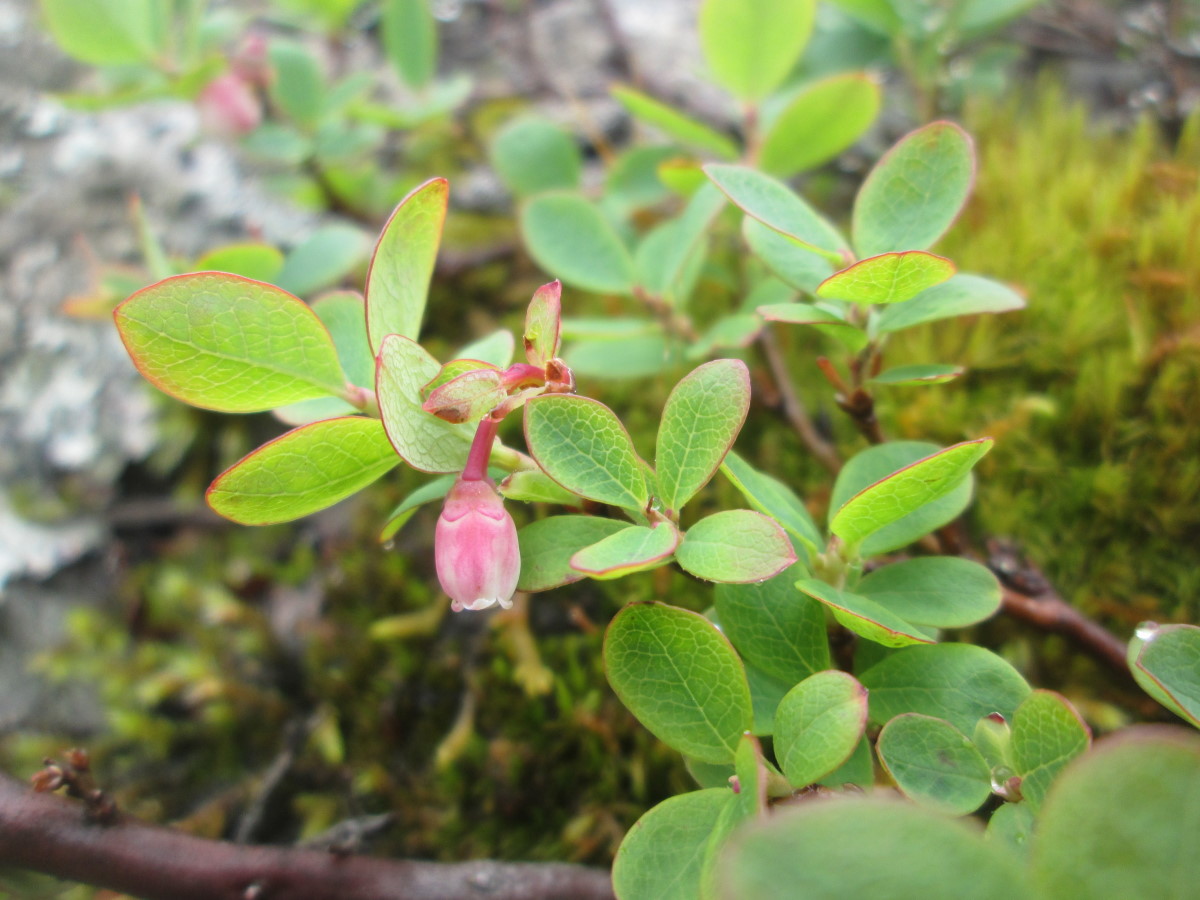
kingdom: Plantae
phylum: Tracheophyta
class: Magnoliopsida
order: Ericales
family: Ericaceae
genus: Vaccinium
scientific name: Vaccinium uliginosum
